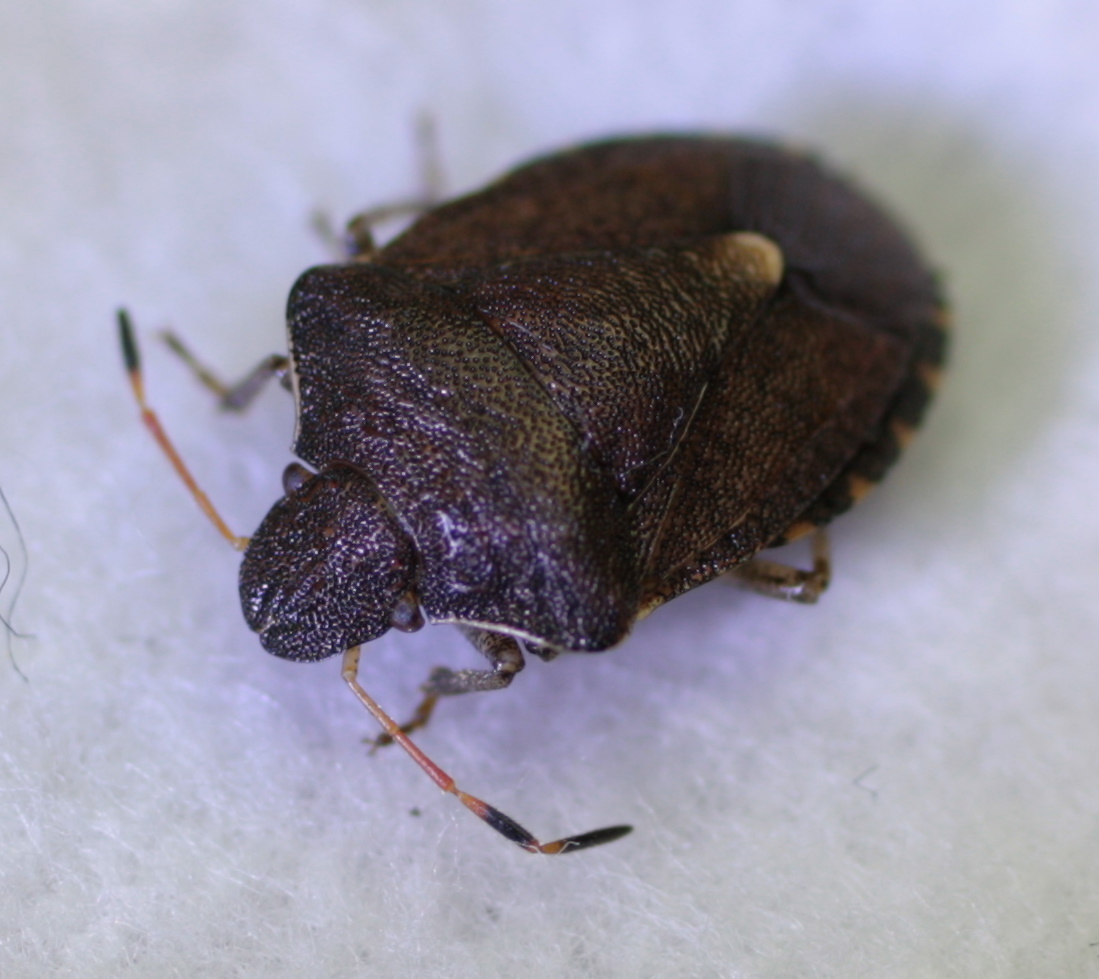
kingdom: Animalia
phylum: Arthropoda
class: Insecta
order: Hemiptera
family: Pentatomidae
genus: Holcostethus
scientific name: Holcostethus strictus
